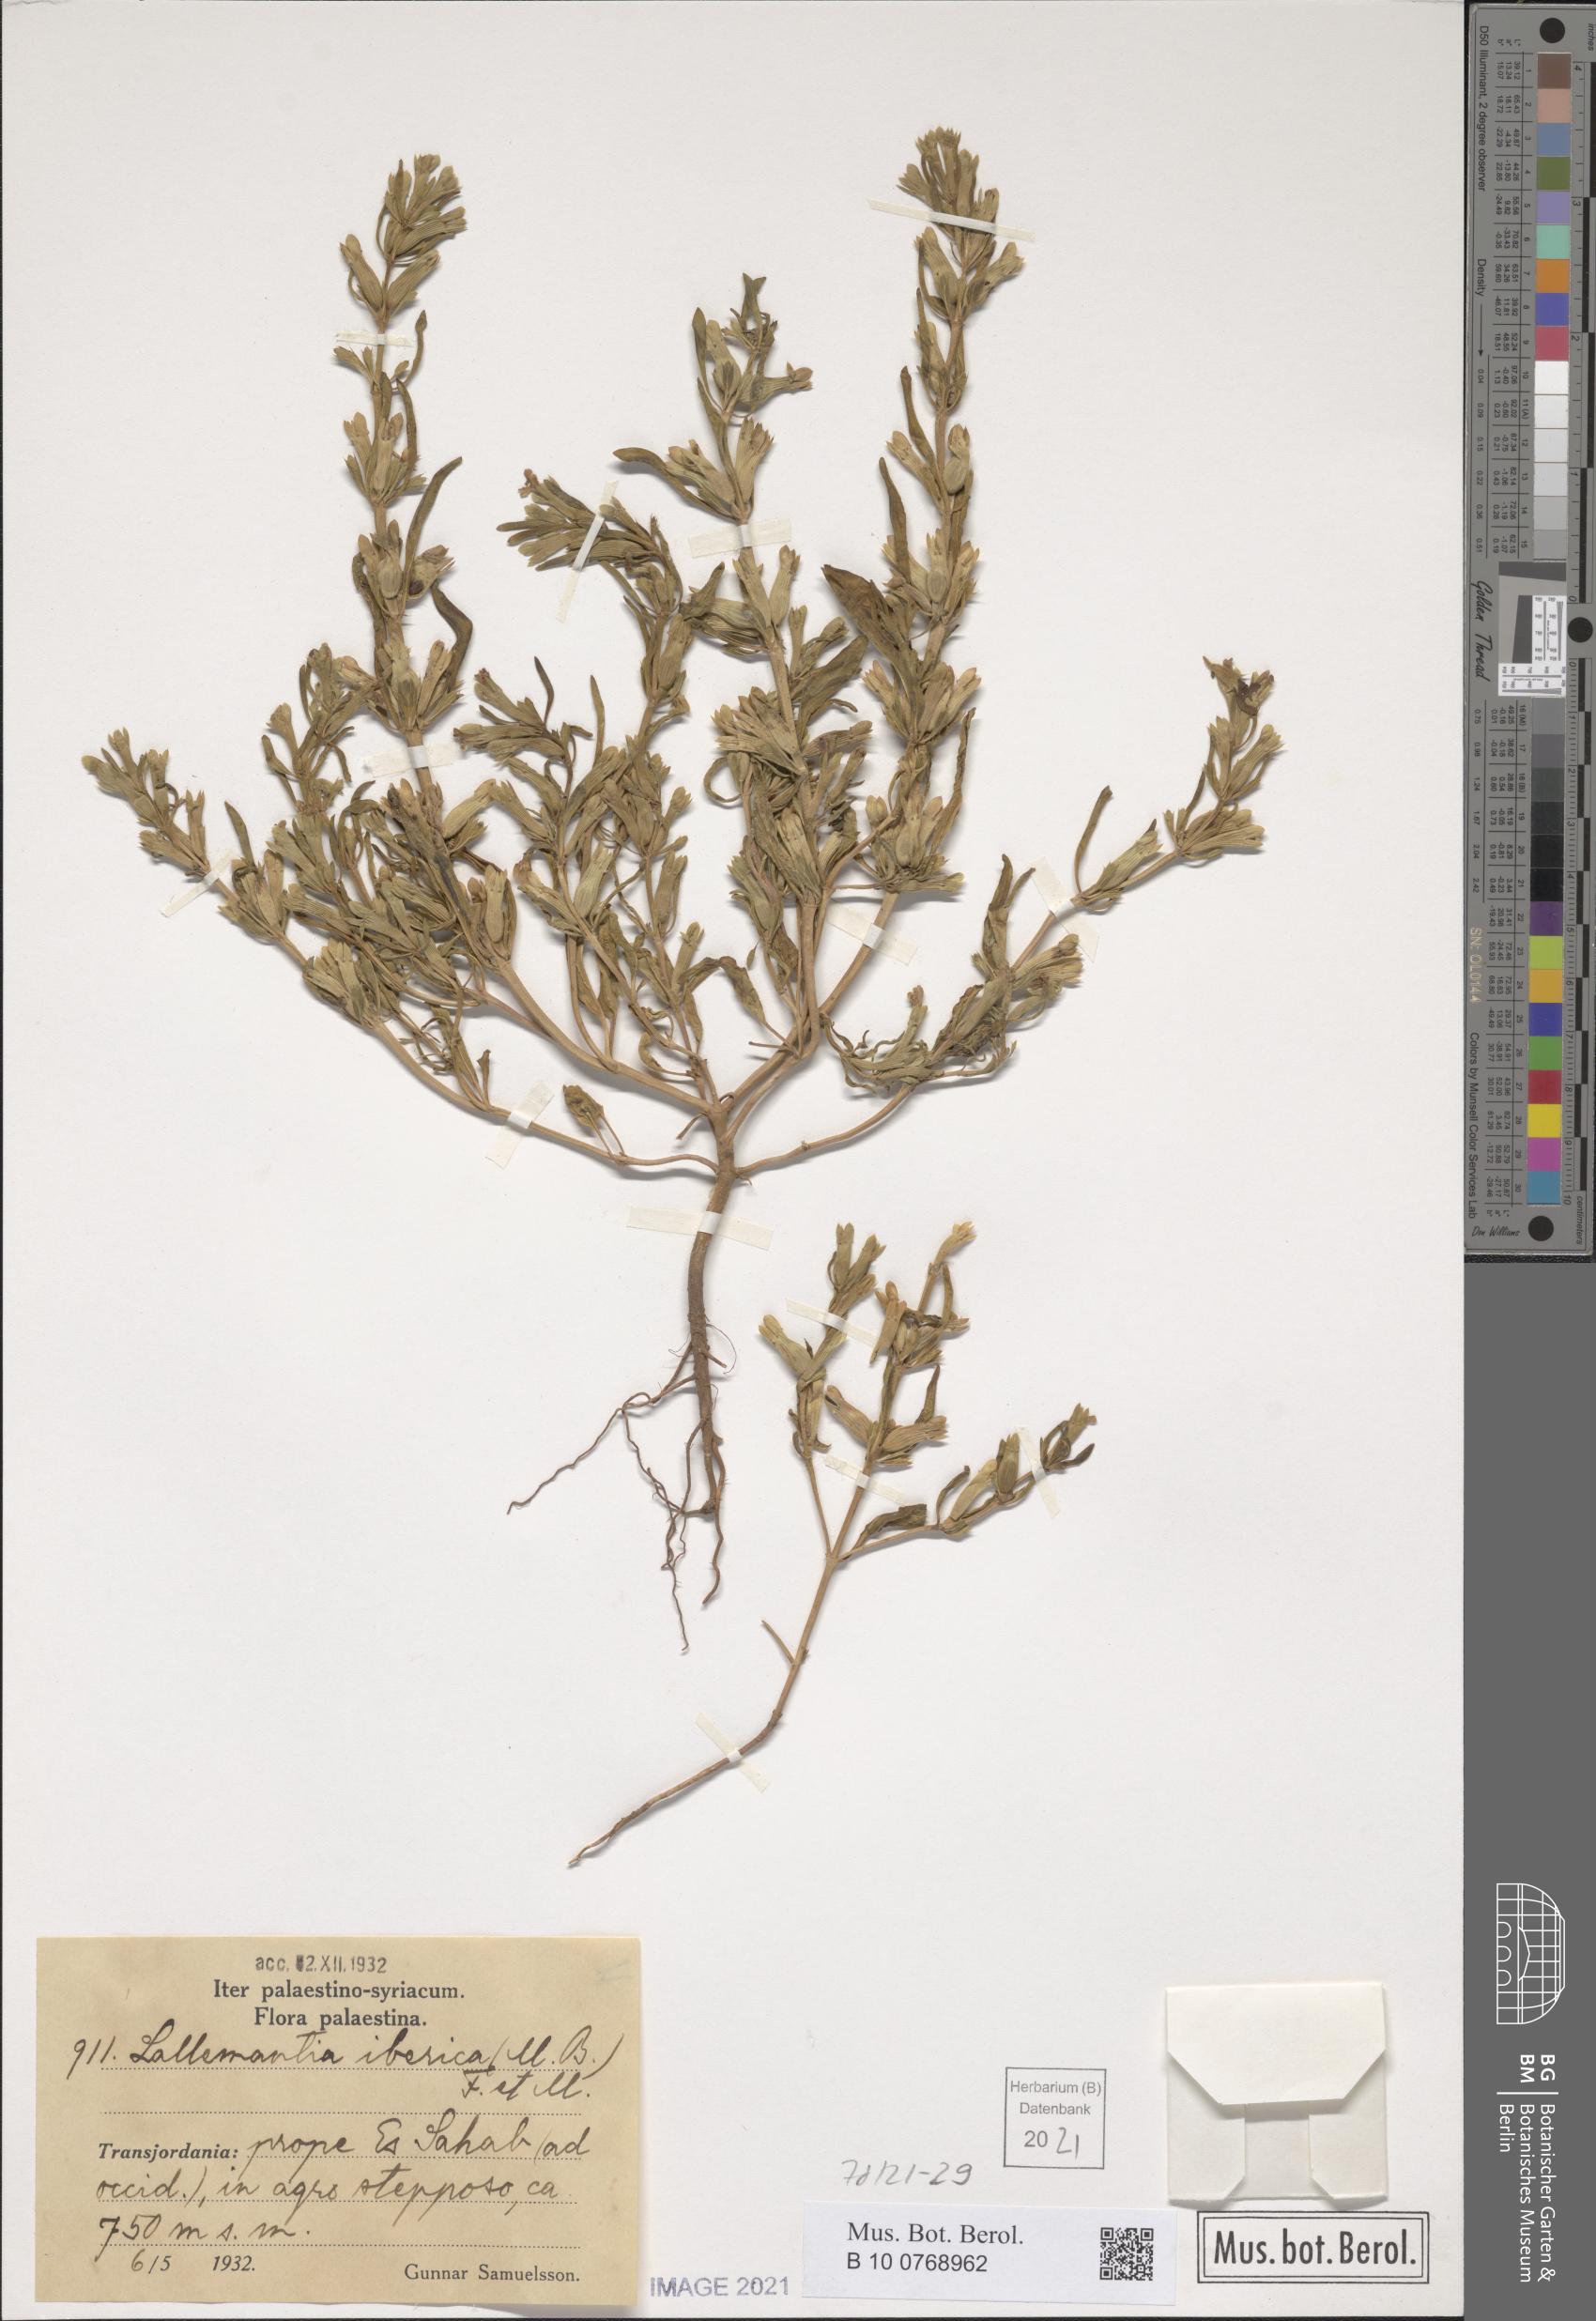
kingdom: Plantae
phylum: Tracheophyta
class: Magnoliopsida
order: Lamiales
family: Lamiaceae
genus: Lallemantia
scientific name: Lallemantia iberica
